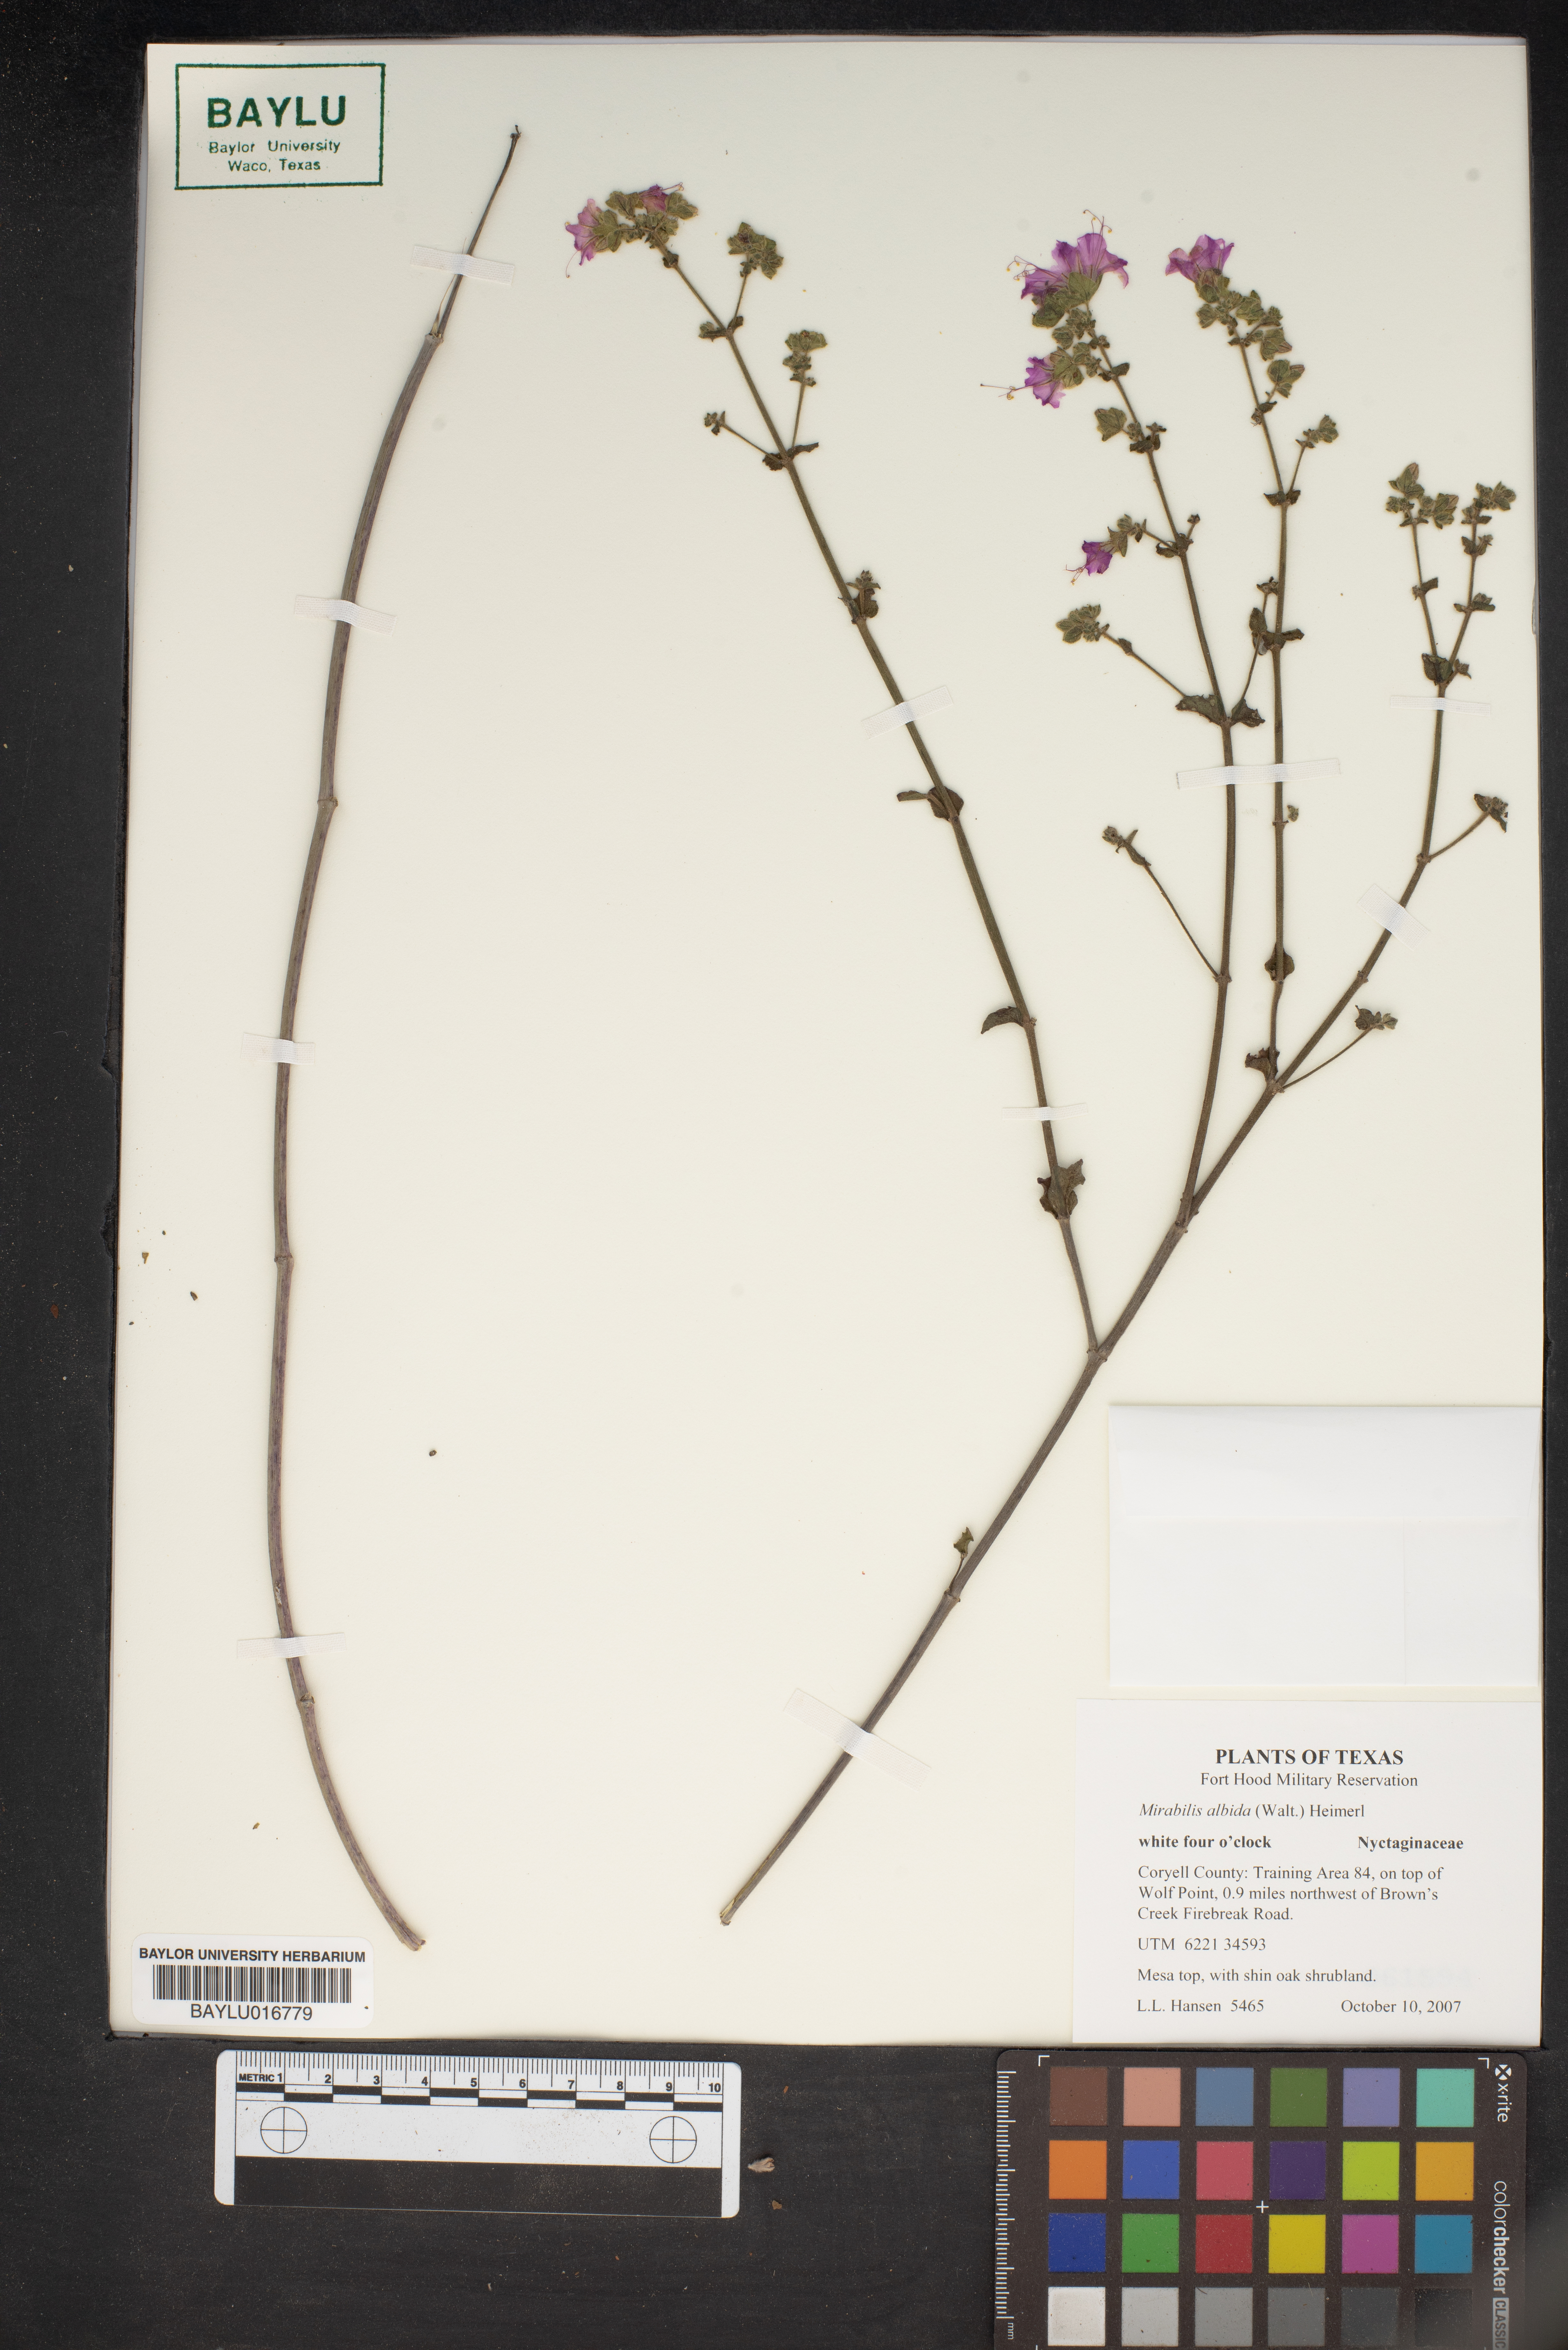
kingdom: Plantae
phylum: Tracheophyta
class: Magnoliopsida
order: Caryophyllales
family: Nyctaginaceae
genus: Mirabilis
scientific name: Mirabilis albida
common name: Hairy four-o'clock
